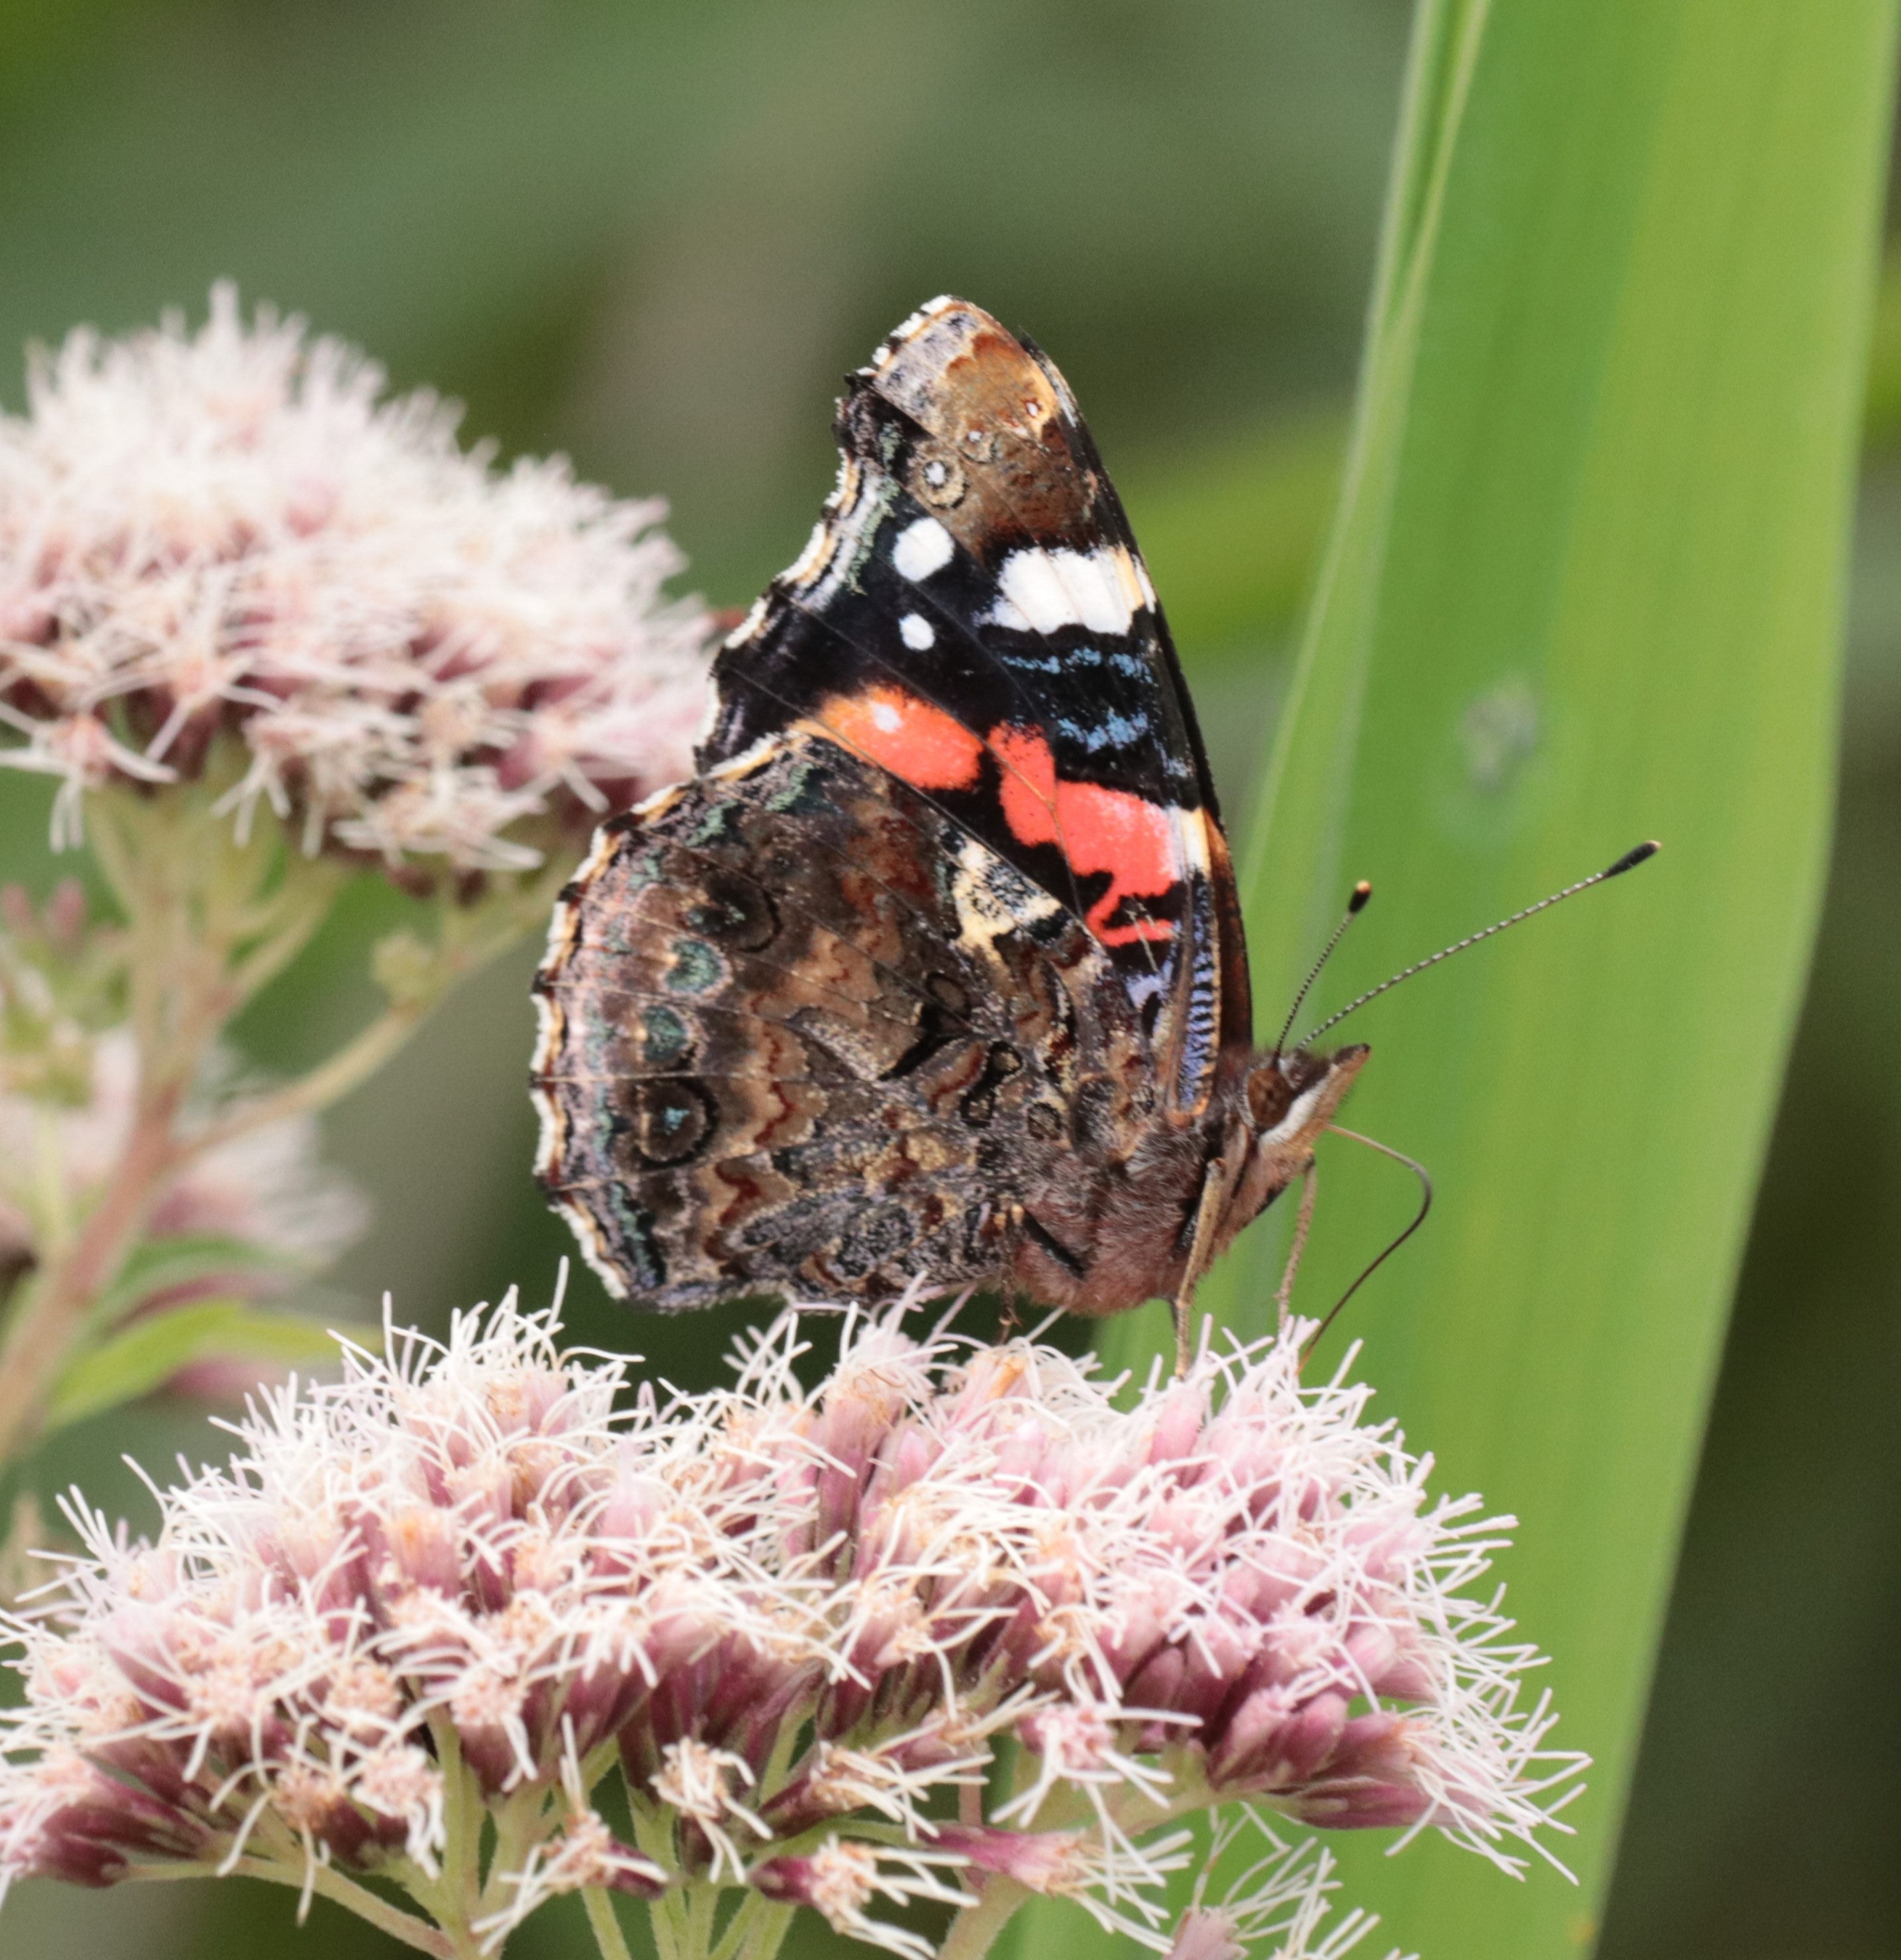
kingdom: Animalia
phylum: Arthropoda
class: Insecta
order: Lepidoptera
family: Nymphalidae
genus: Vanessa
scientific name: Vanessa atalanta
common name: Admiral
